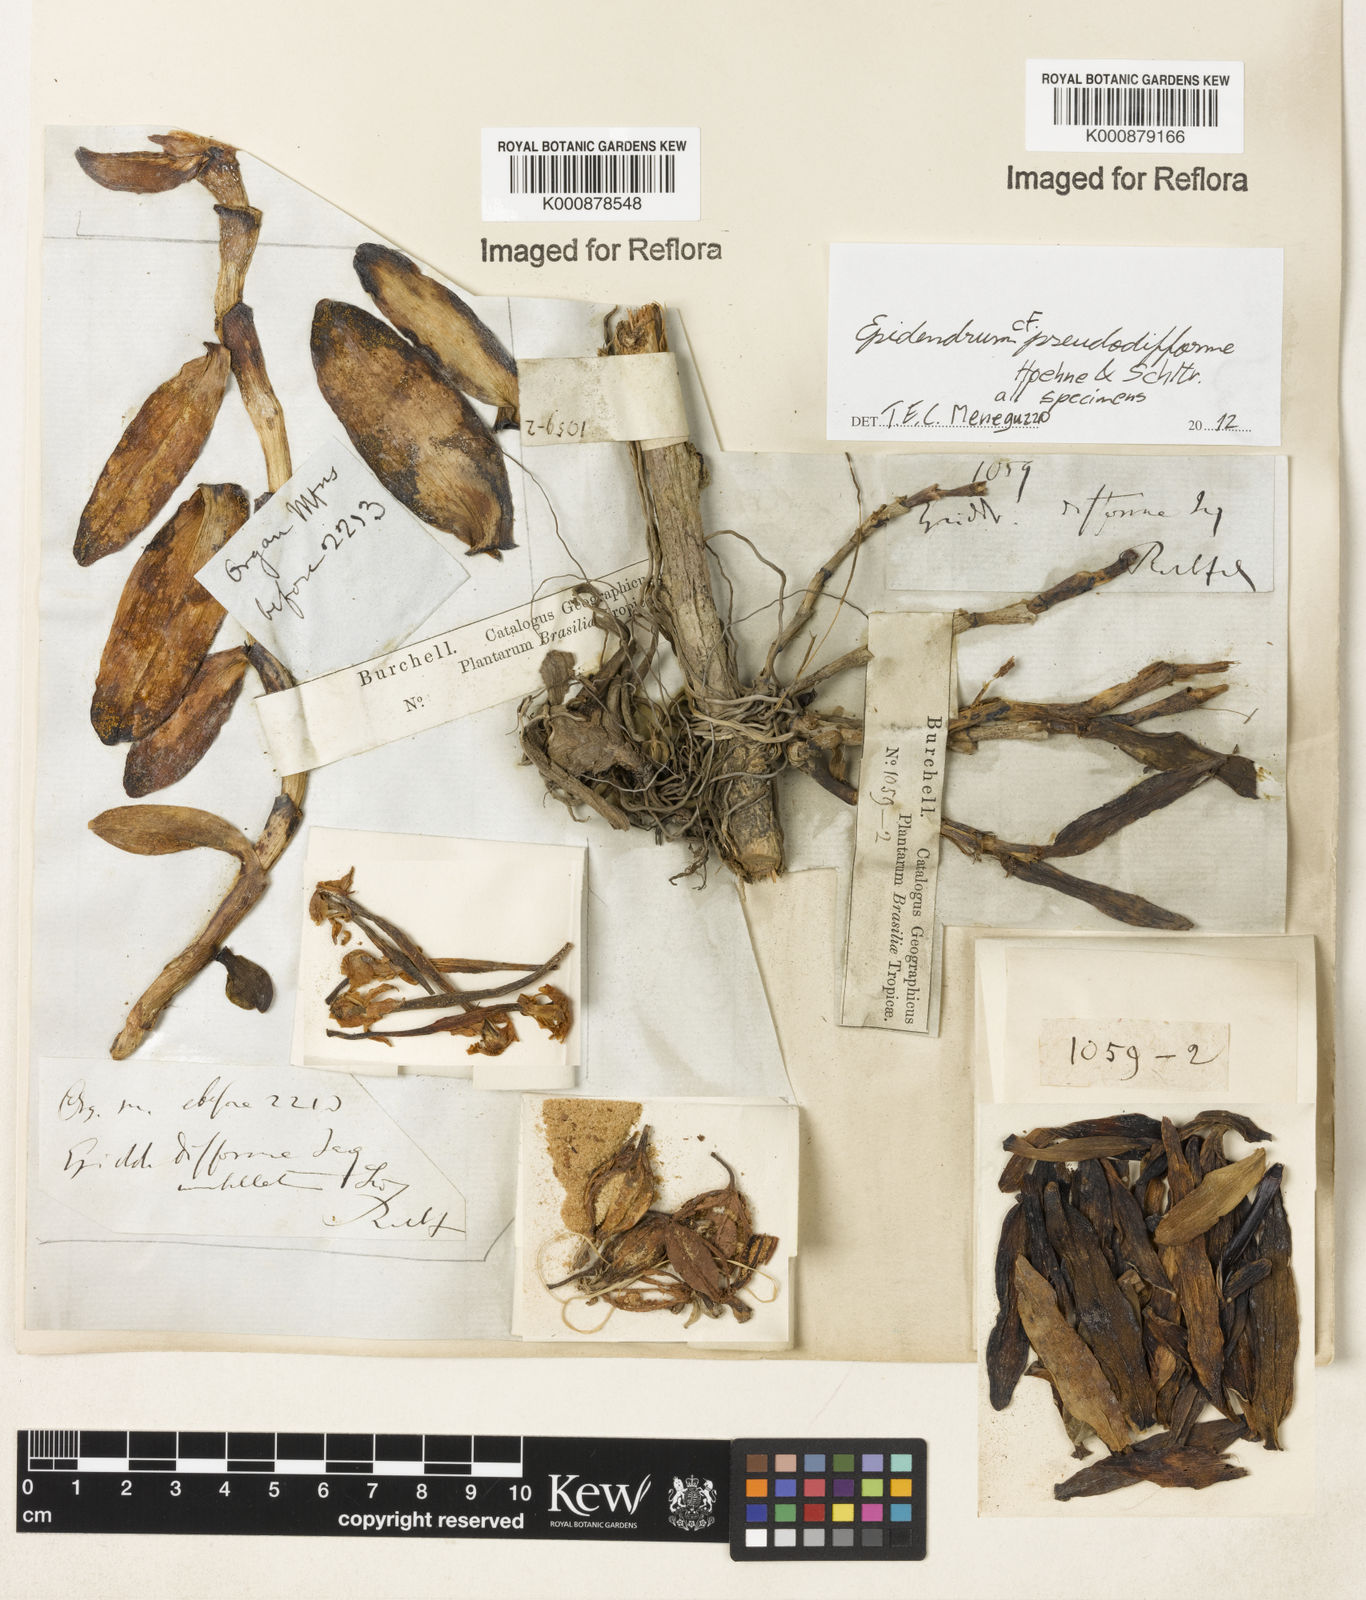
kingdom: Plantae
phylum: Tracheophyta
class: Liliopsida
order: Asparagales
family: Orchidaceae
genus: Epidendrum
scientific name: Epidendrum pseudodifforme
